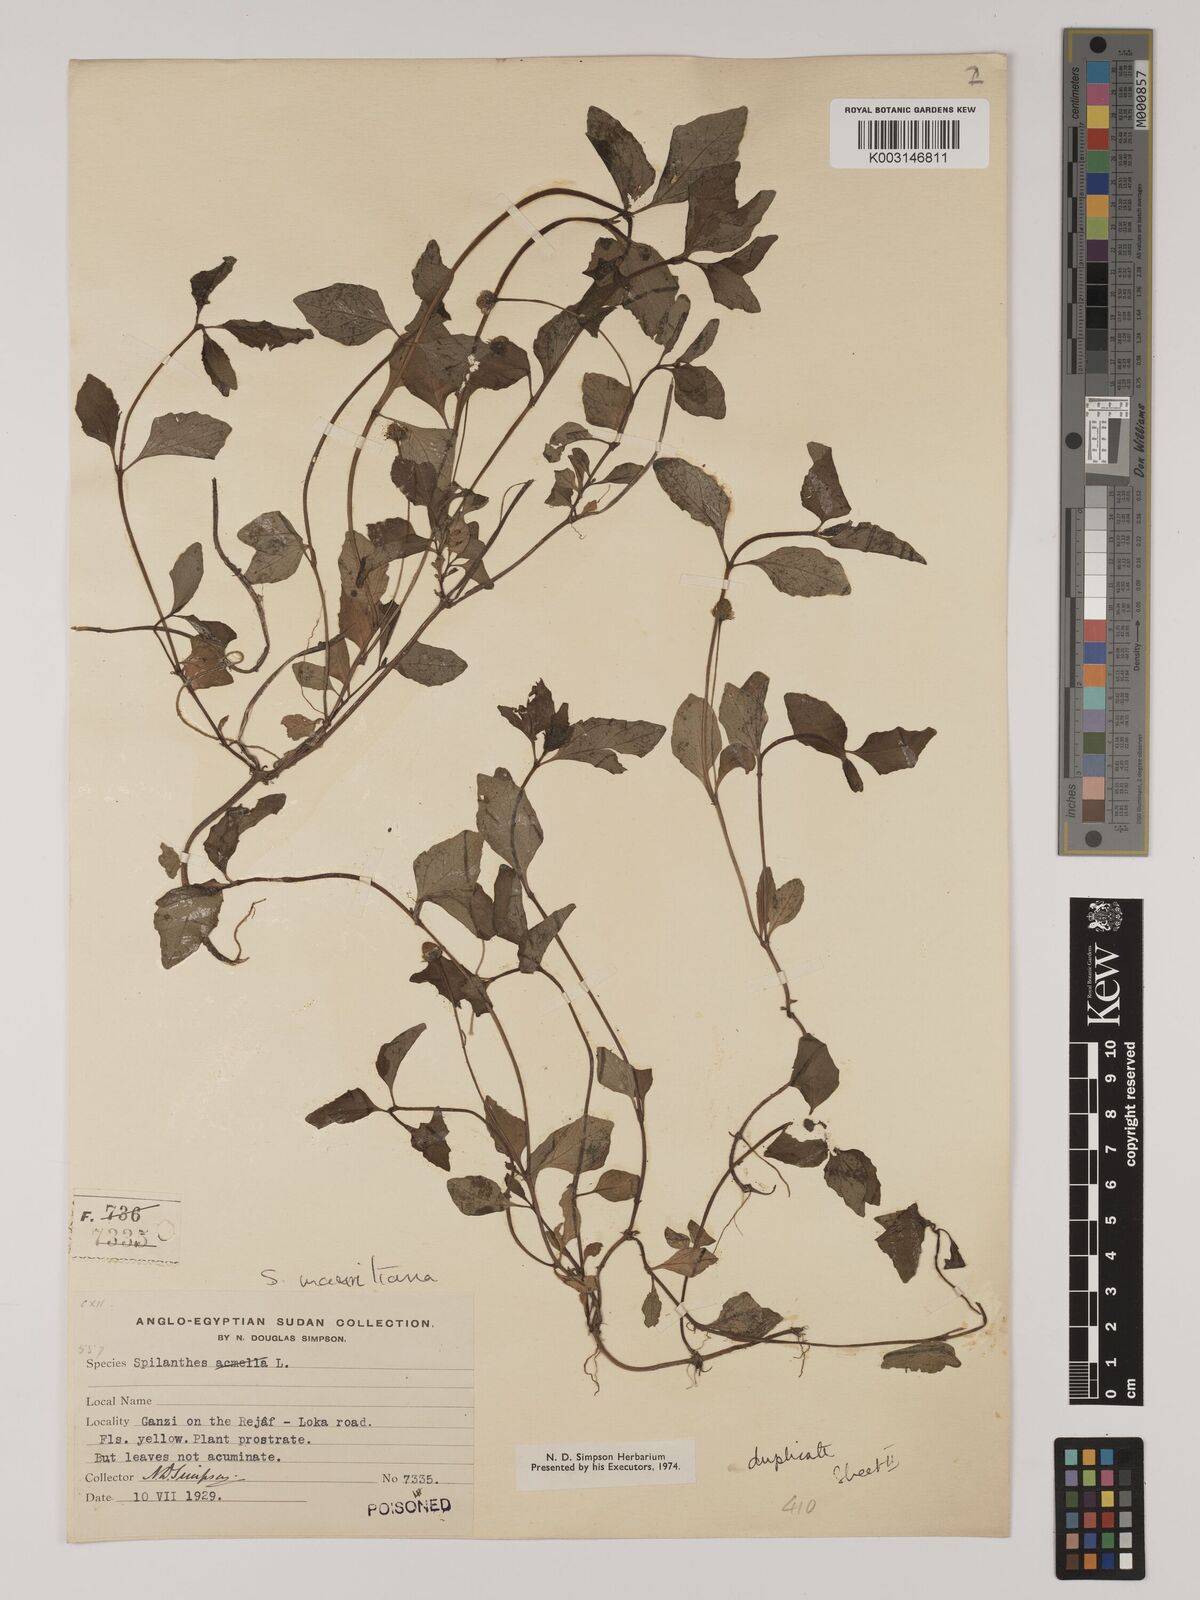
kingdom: Plantae
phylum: Tracheophyta
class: Magnoliopsida
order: Asterales
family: Asteraceae
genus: Blainvillea
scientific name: Blainvillea acmella
